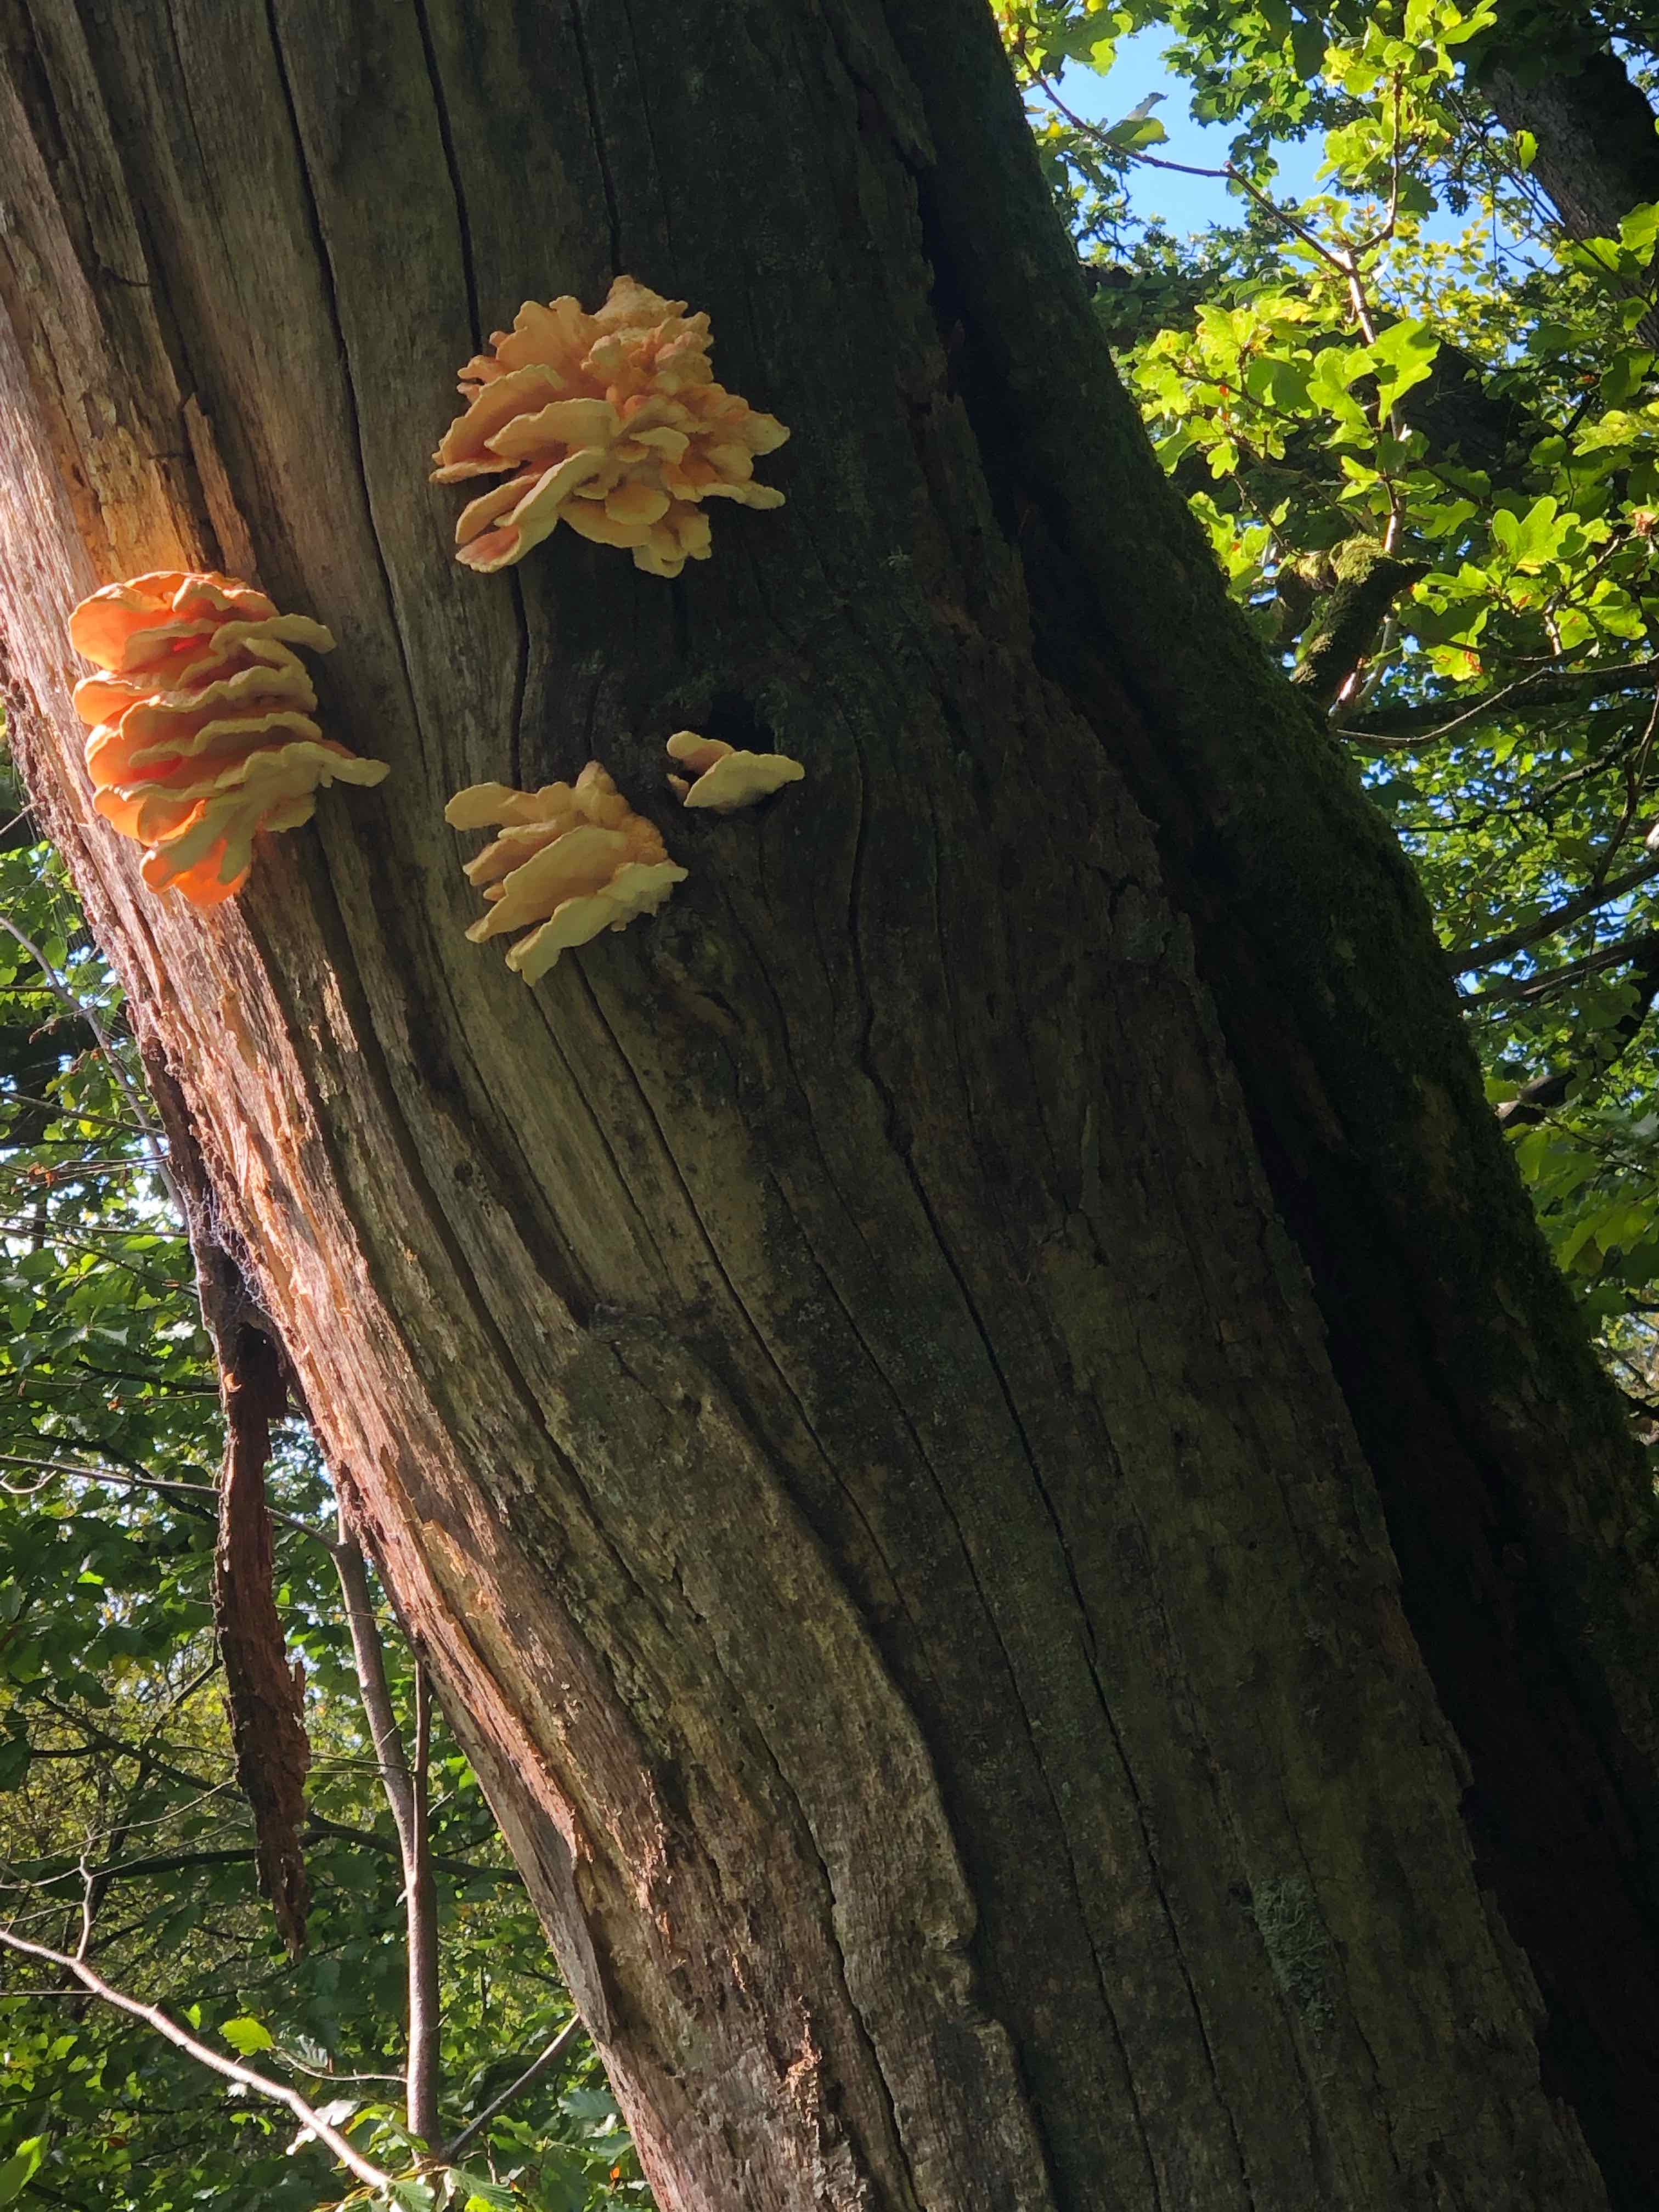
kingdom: Fungi
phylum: Basidiomycota
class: Agaricomycetes
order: Polyporales
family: Laetiporaceae
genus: Laetiporus
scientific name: Laetiporus sulphureus
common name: svovlporesvamp
